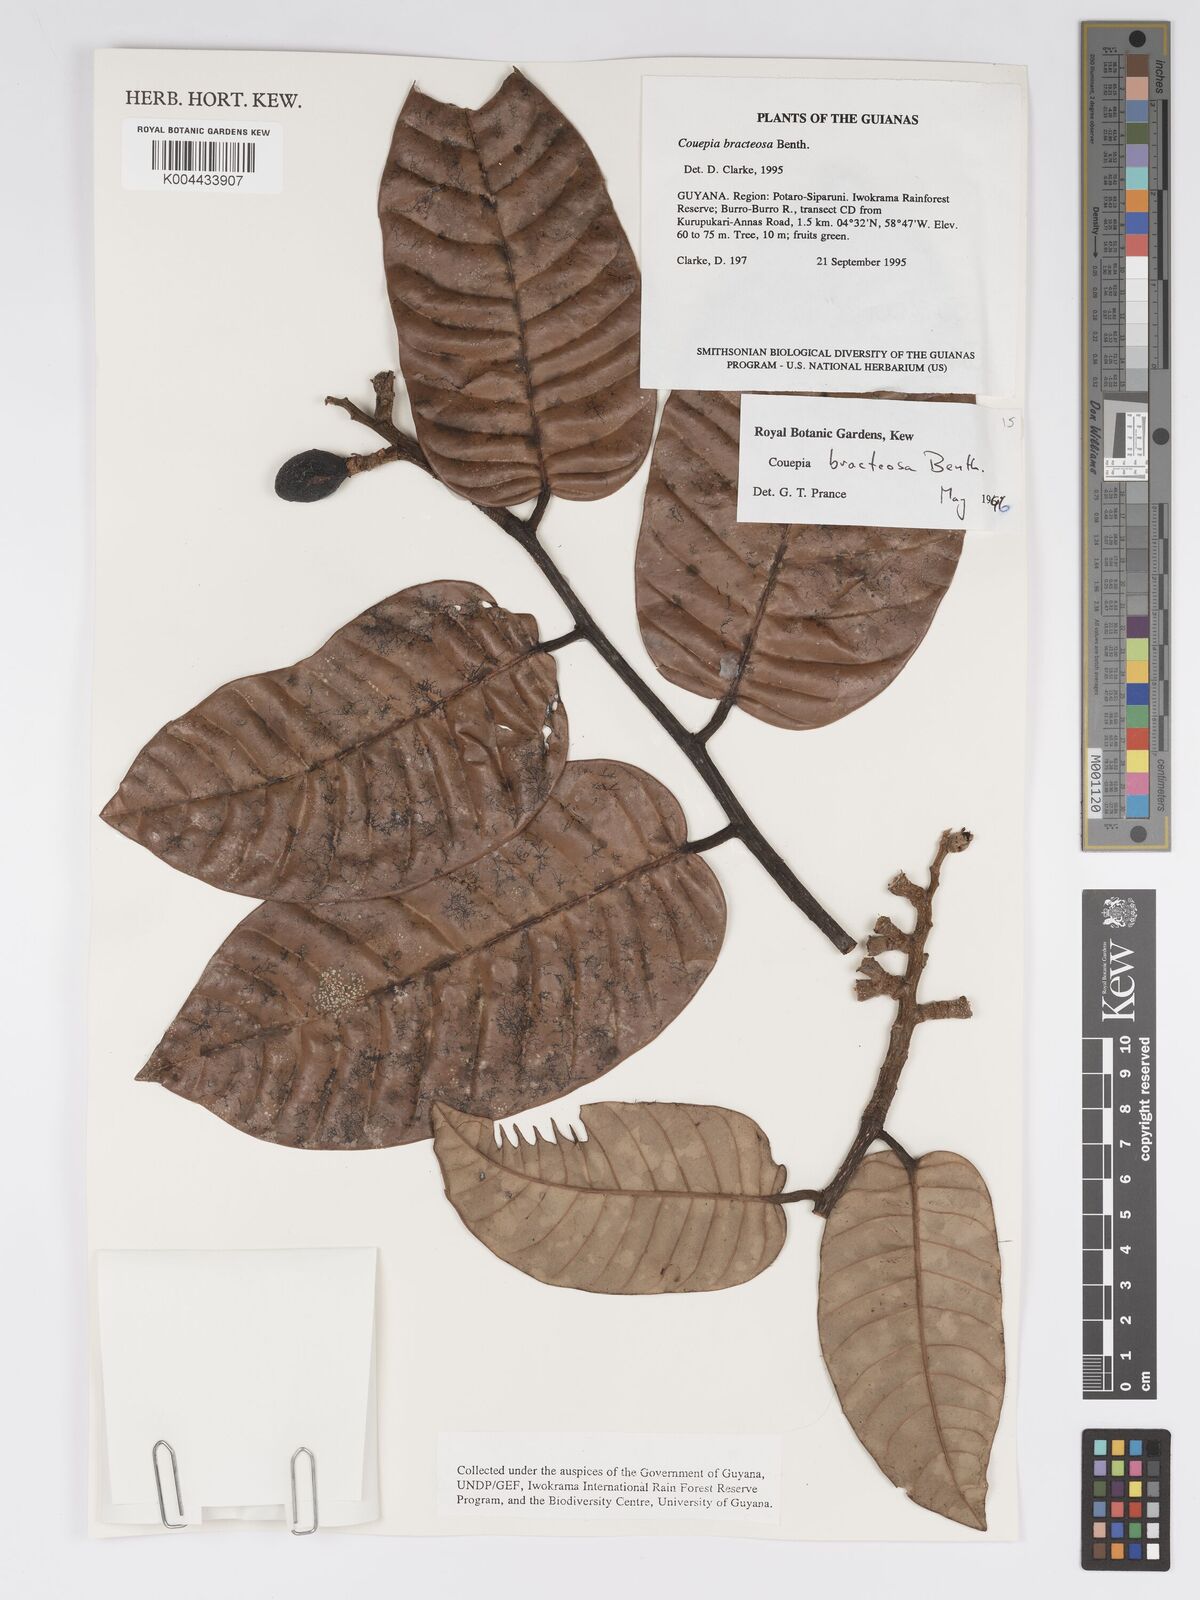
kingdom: Plantae
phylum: Tracheophyta
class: Magnoliopsida
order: Malpighiales
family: Chrysobalanaceae
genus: Couepia
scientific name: Couepia bracteosa
